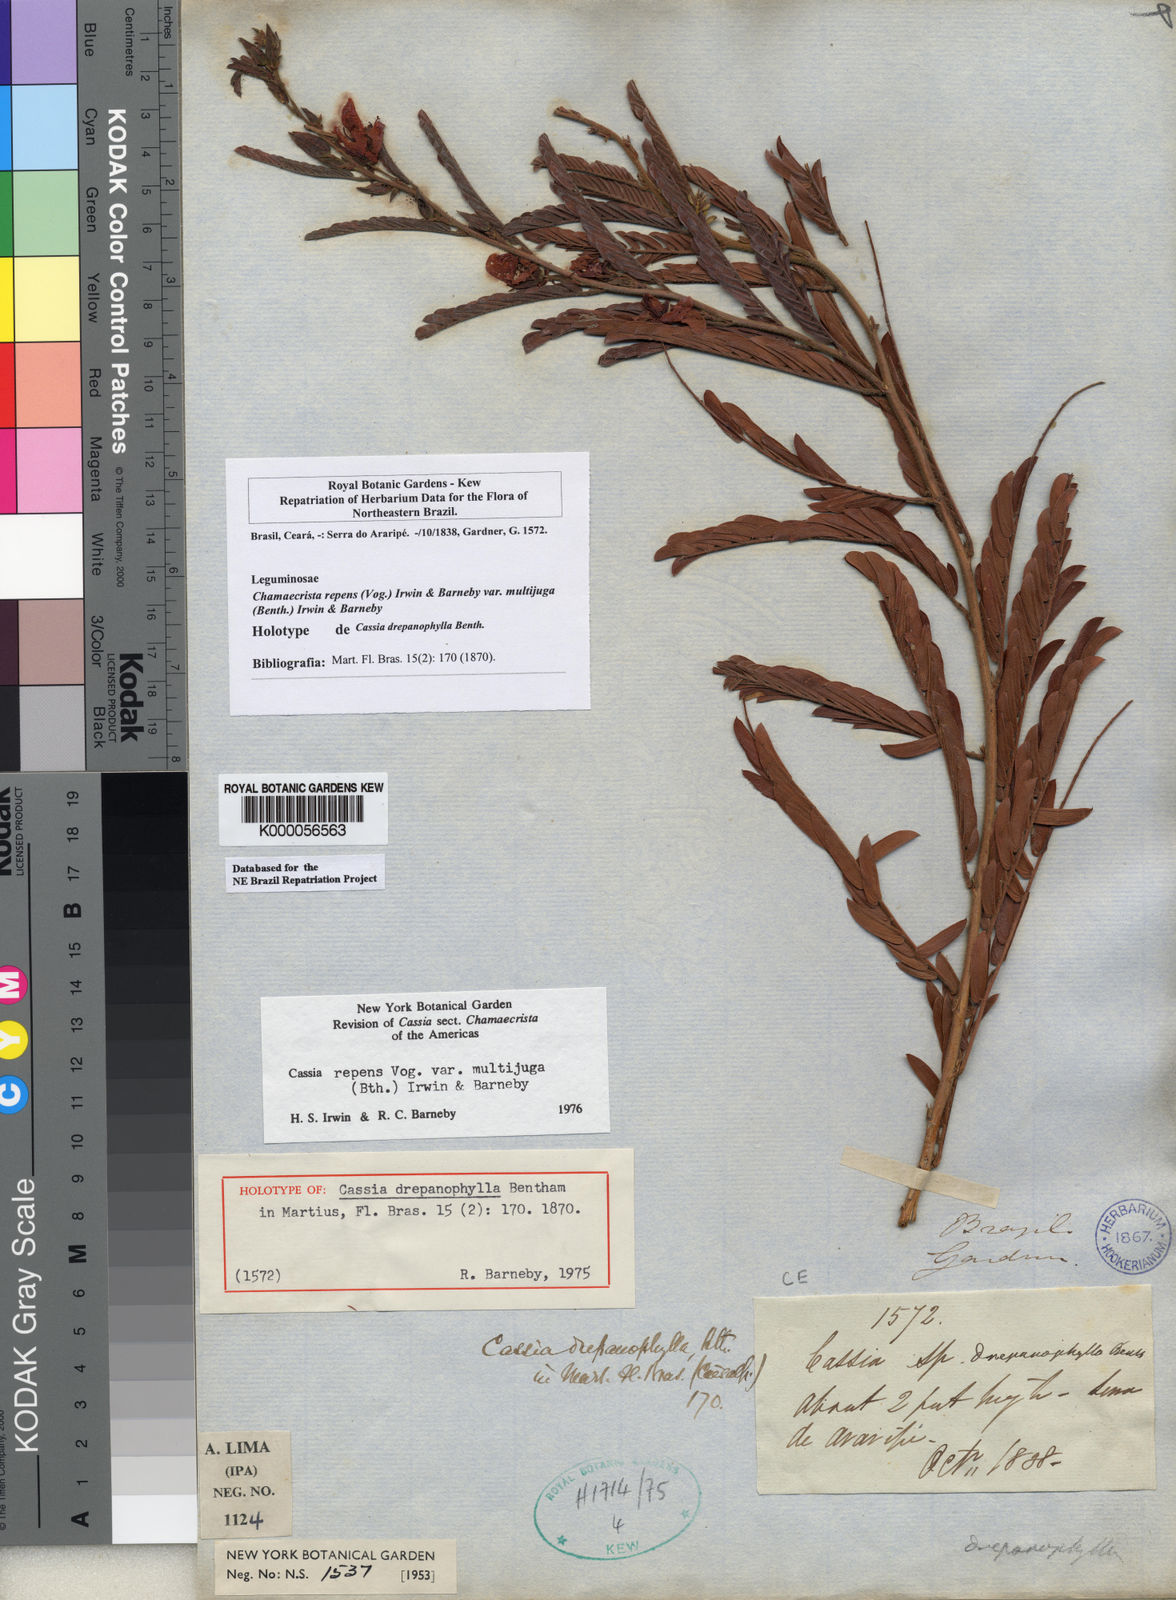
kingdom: Plantae
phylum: Tracheophyta
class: Magnoliopsida
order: Fabales
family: Fabaceae
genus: Chamaecrista
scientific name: Chamaecrista repens
